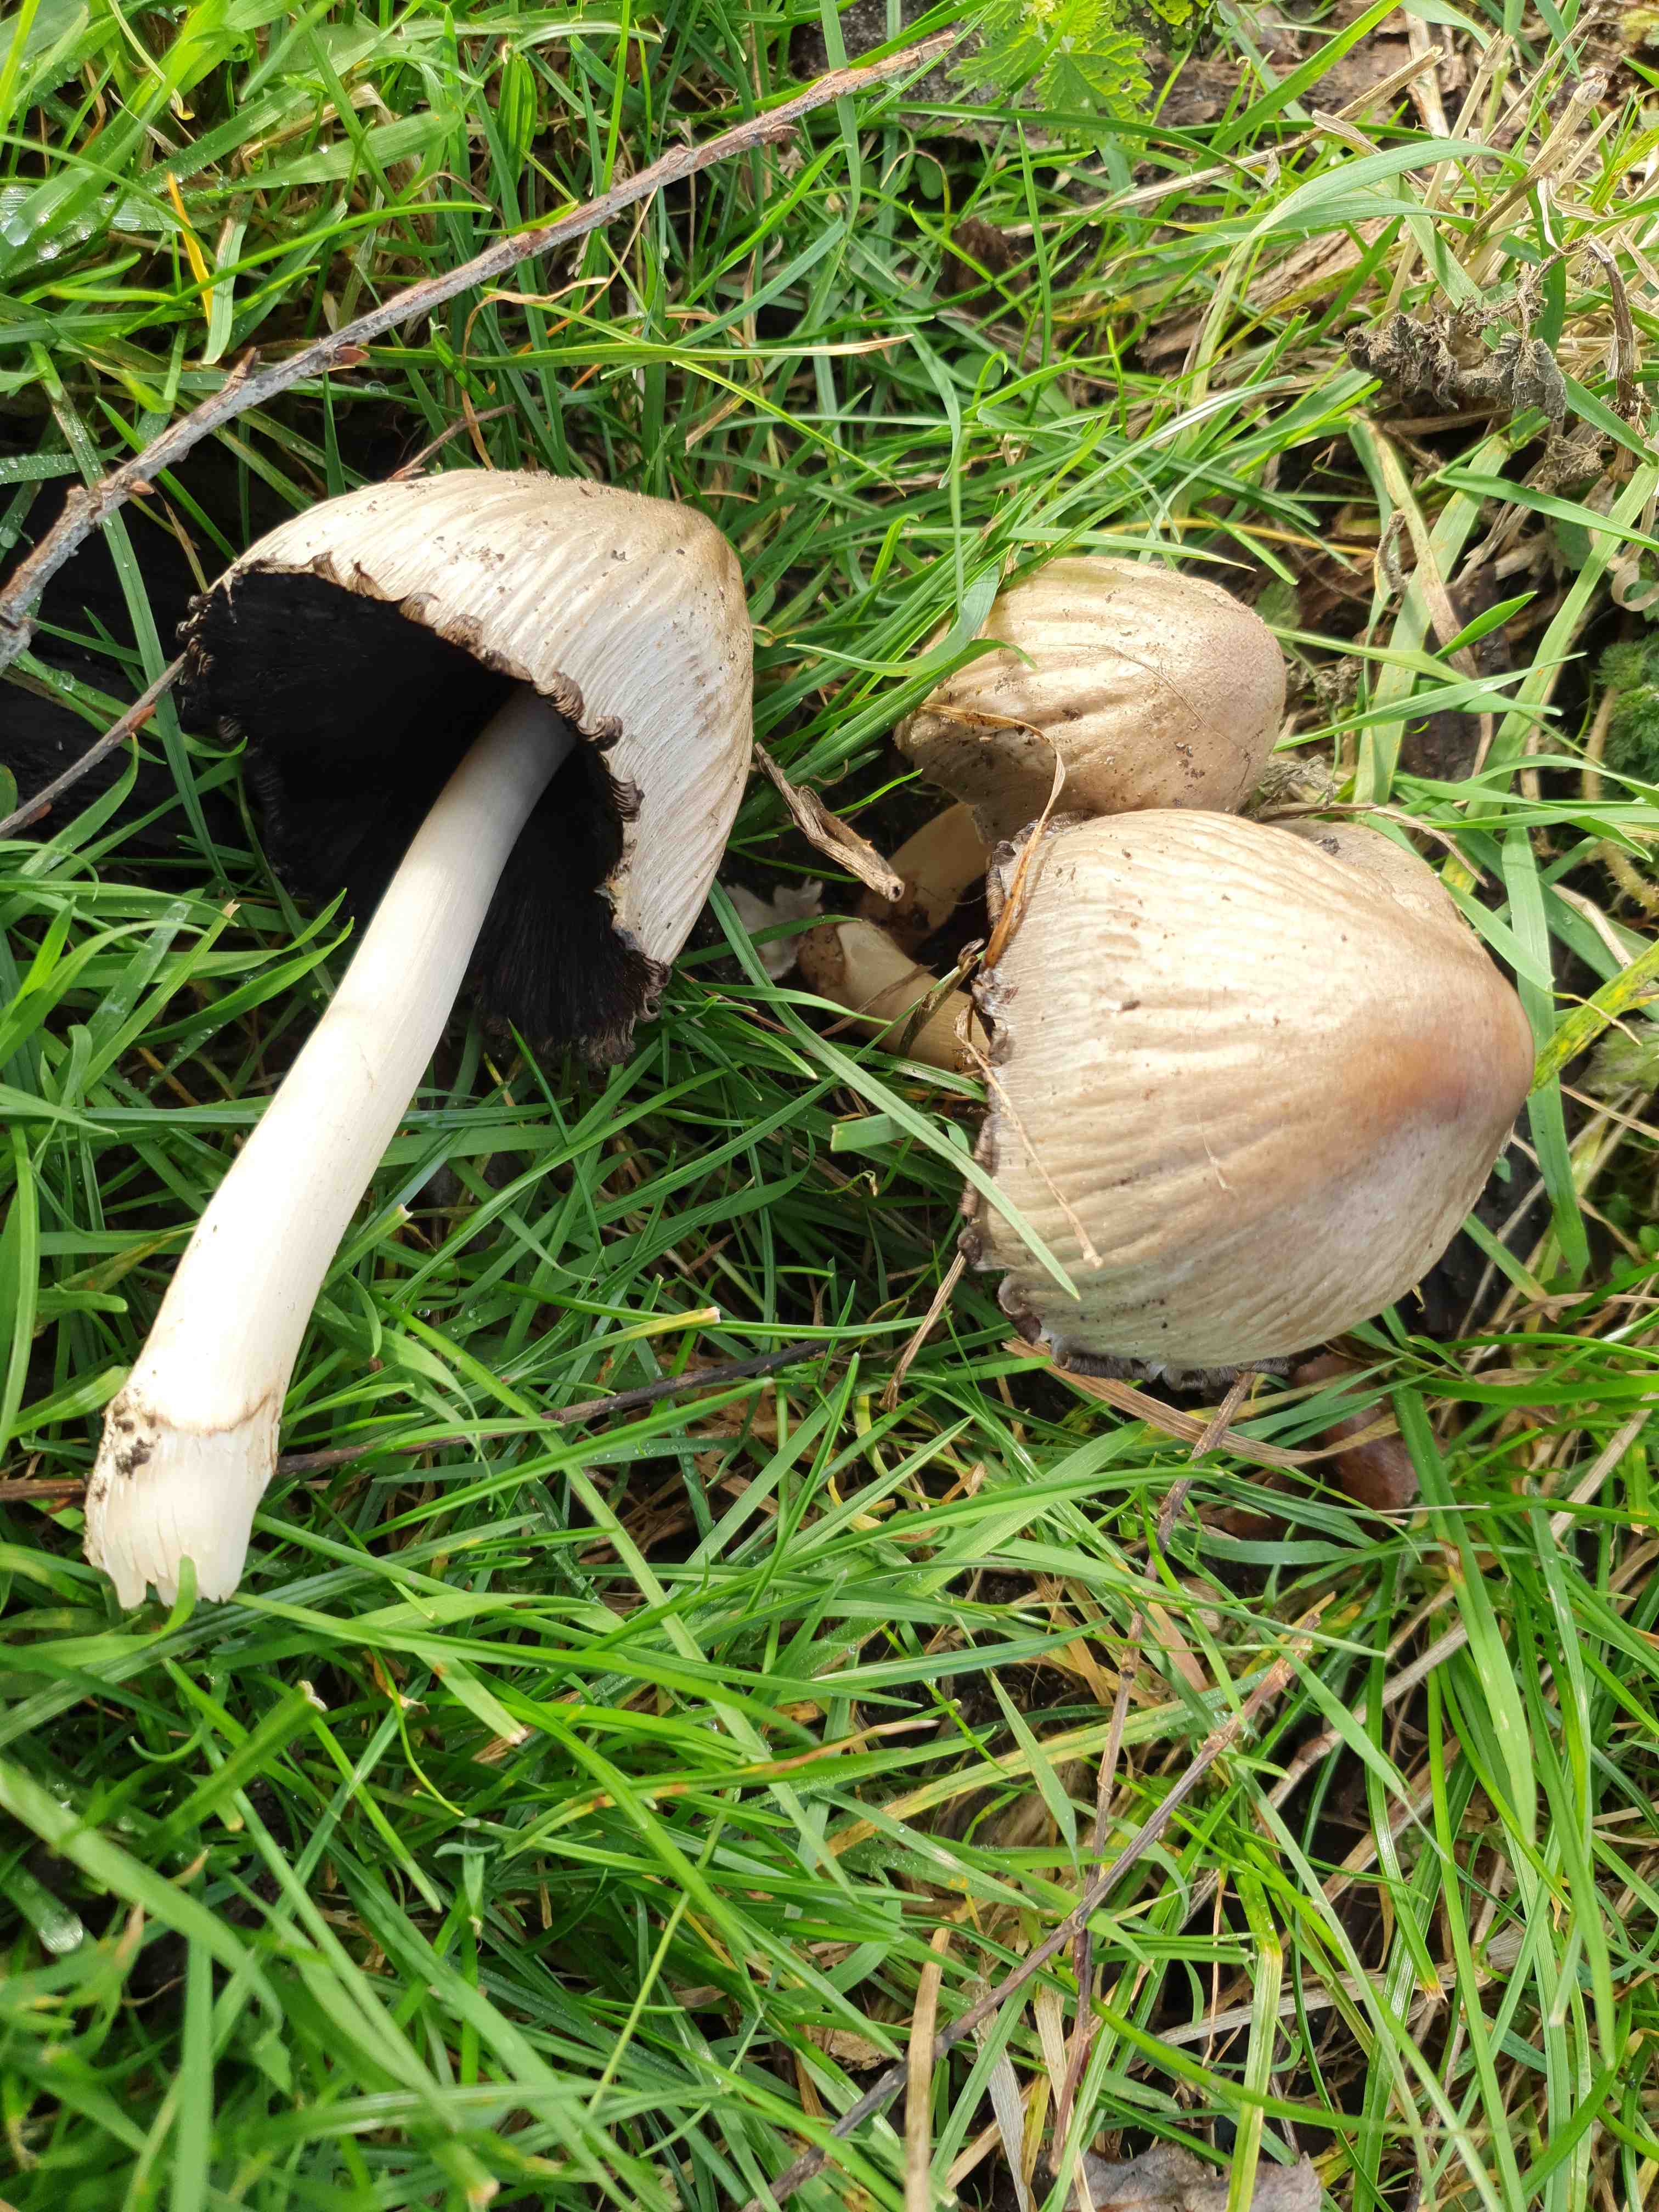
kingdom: Fungi
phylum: Basidiomycota
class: Agaricomycetes
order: Agaricales
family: Psathyrellaceae
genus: Coprinopsis
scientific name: Coprinopsis atramentaria
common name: almindelig blækhat
